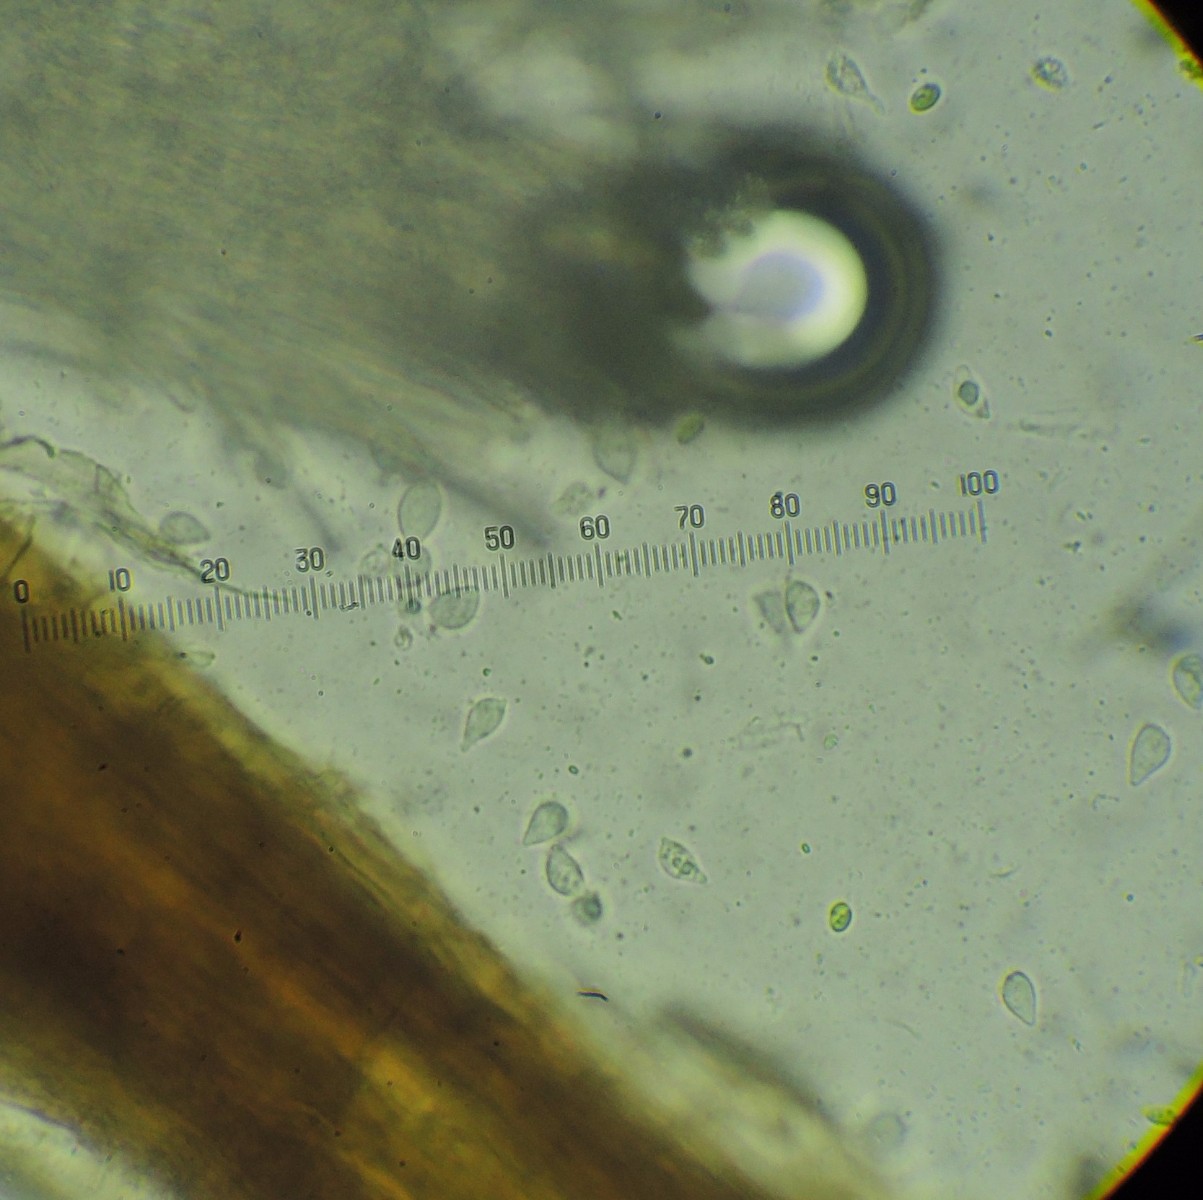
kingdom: Fungi
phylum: Basidiomycota
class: Agaricomycetes
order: Agaricales
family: Niaceae
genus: Lachnella
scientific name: Lachnella villosa
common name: hvid frynserede
